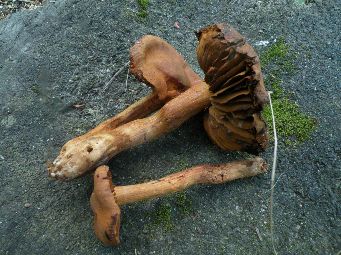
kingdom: Fungi
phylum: Basidiomycota
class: Agaricomycetes
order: Agaricales
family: Cortinariaceae
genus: Cortinarius
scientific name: Cortinarius rubellus
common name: puklet gift-slørhat
